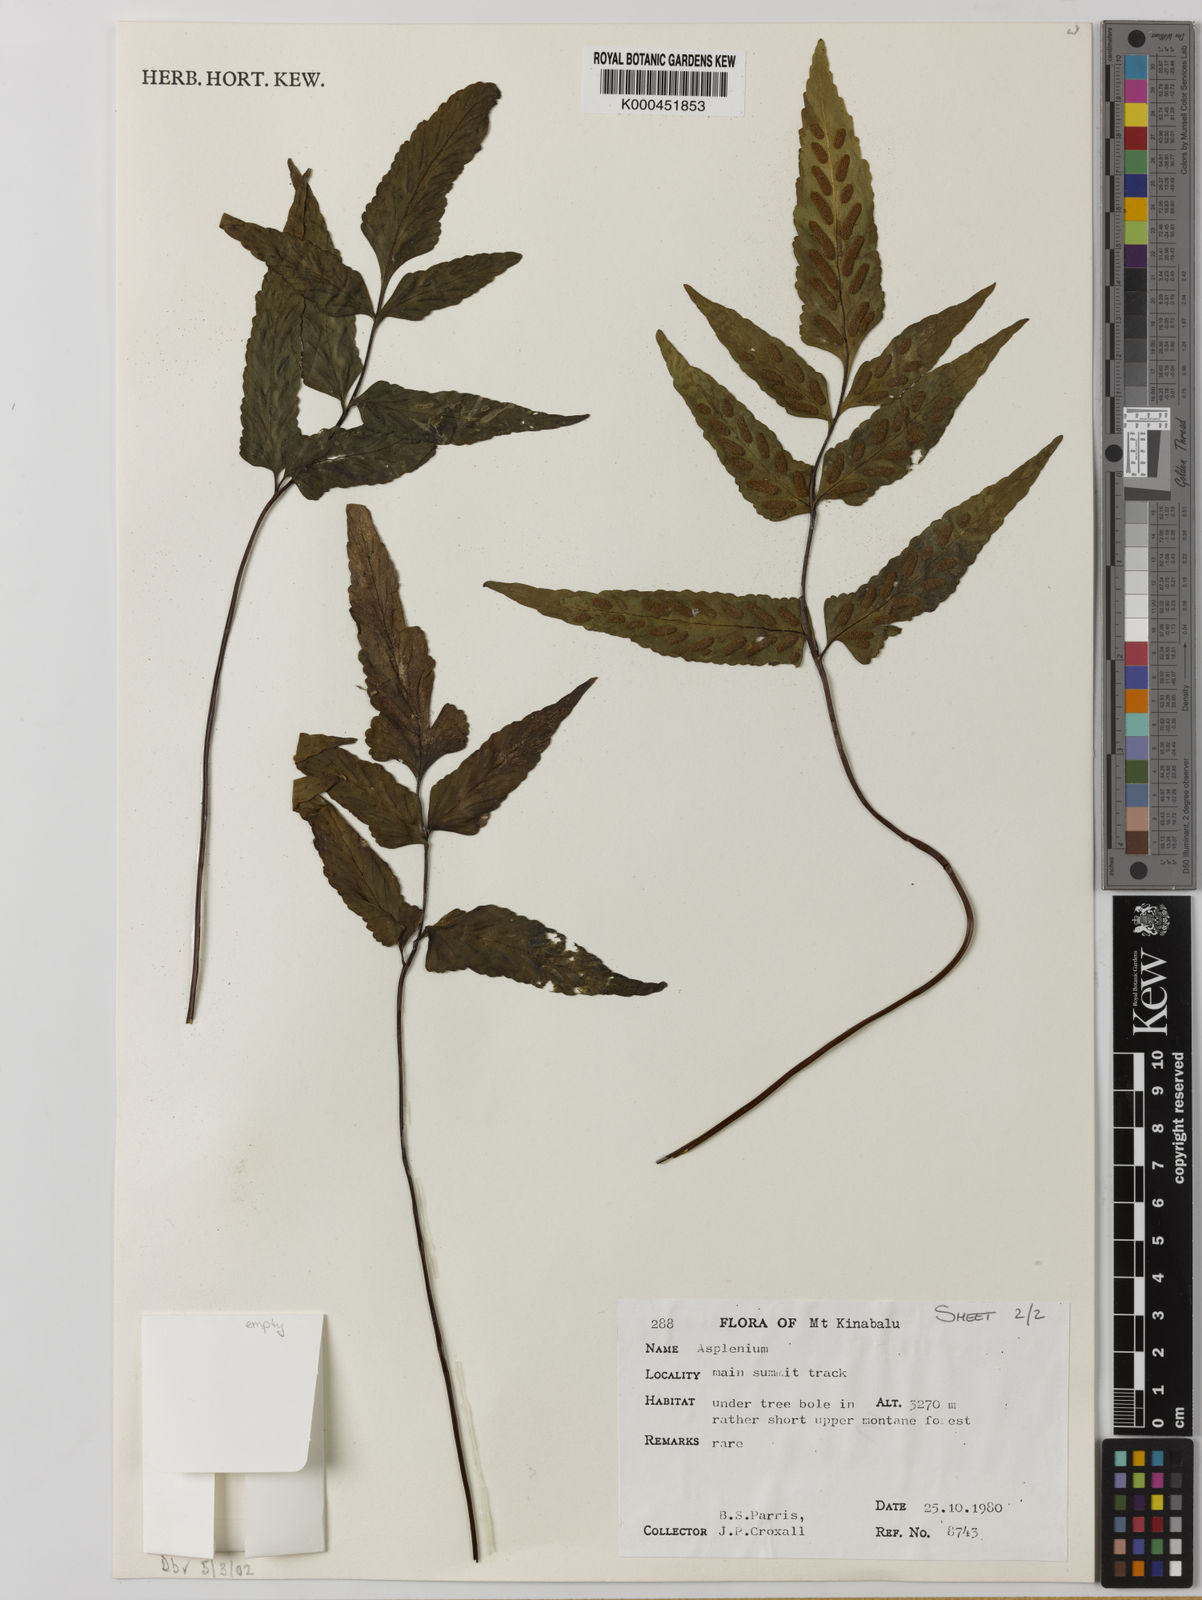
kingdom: Plantae
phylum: Tracheophyta
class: Polypodiopsida
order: Polypodiales
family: Aspleniaceae
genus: Asplenium
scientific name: Asplenium
